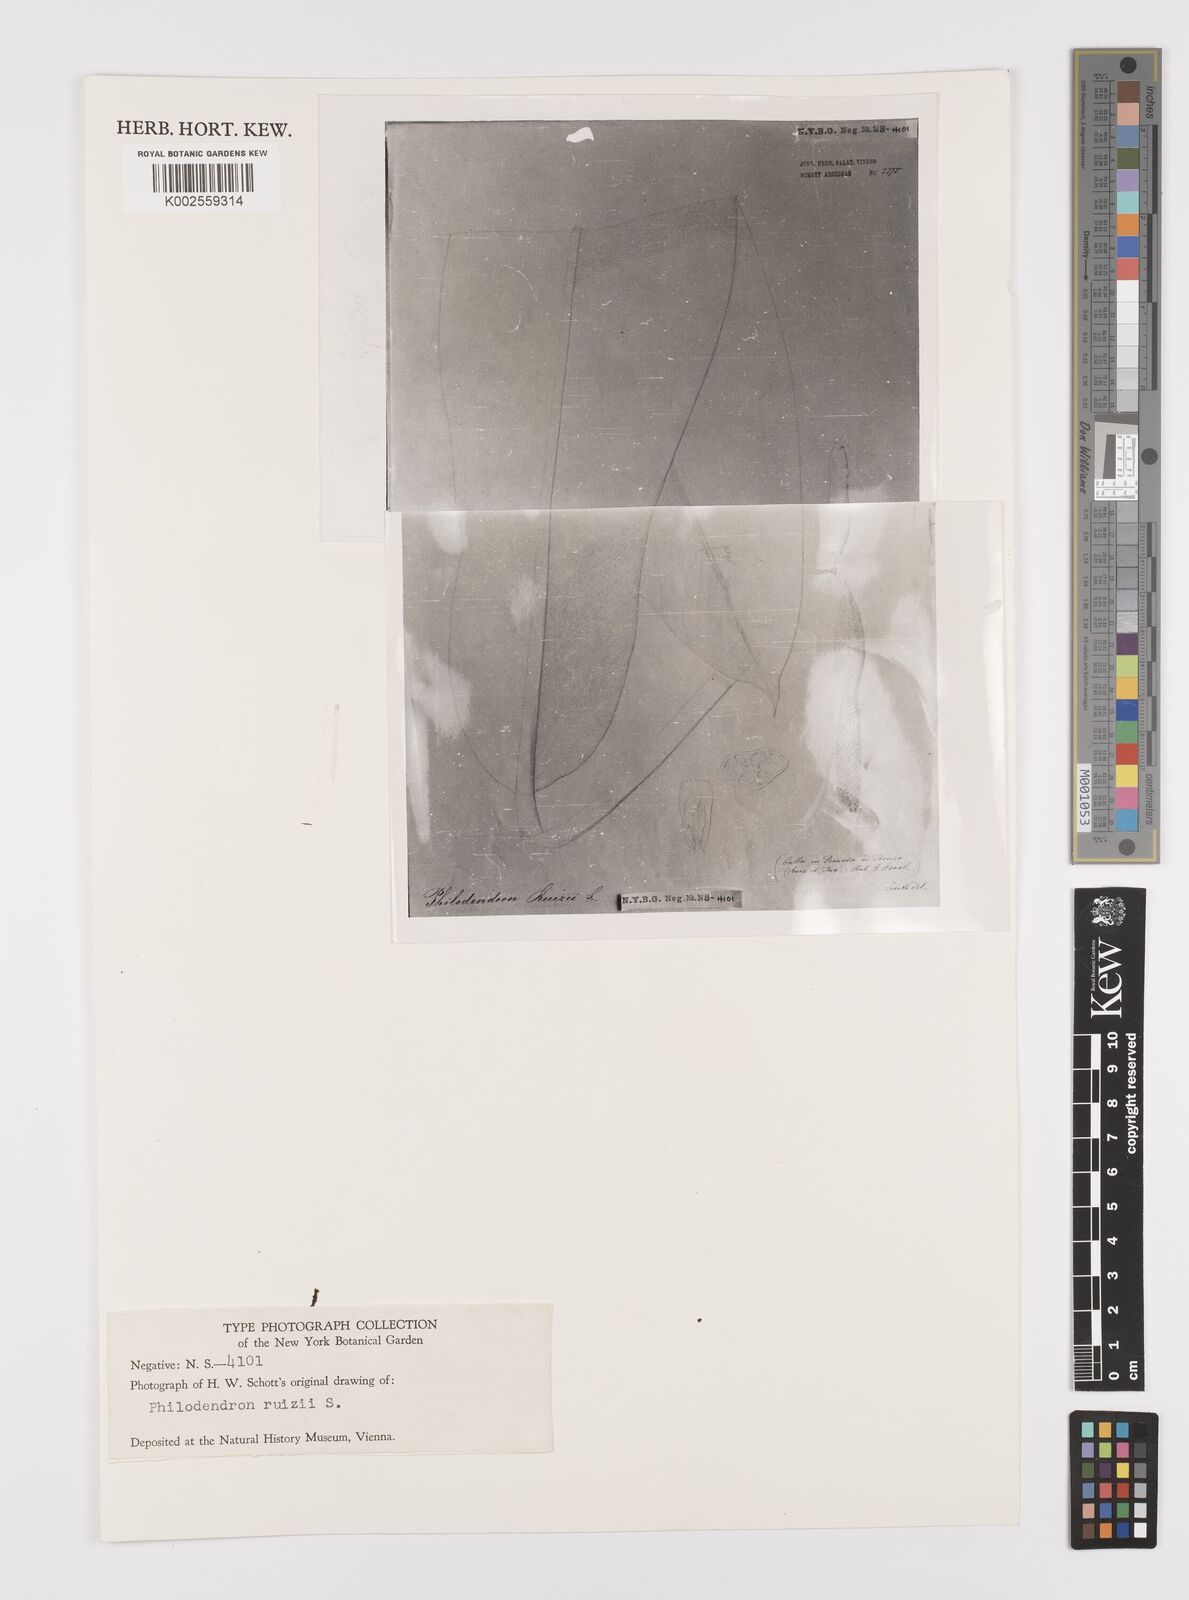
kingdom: Plantae
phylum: Tracheophyta
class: Liliopsida
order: Alismatales
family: Araceae
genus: Philodendron
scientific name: Philodendron ruizii
